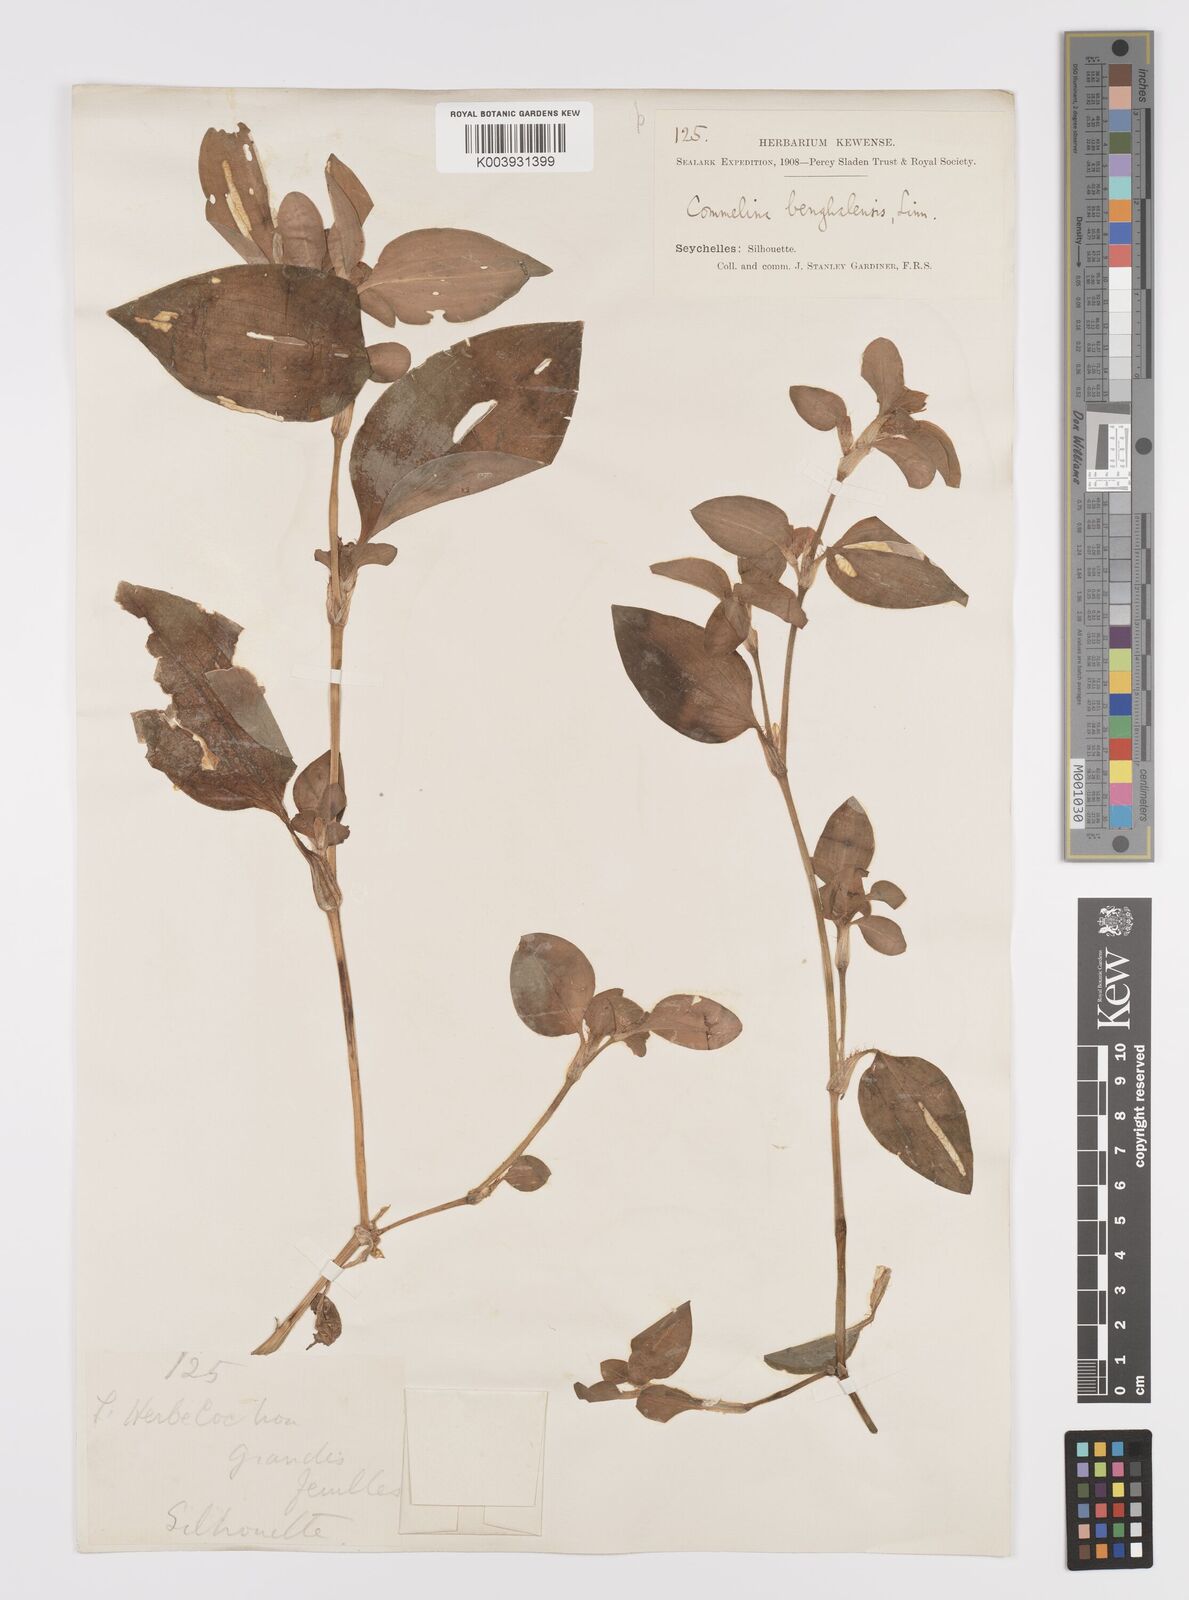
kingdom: Plantae
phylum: Tracheophyta
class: Liliopsida
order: Commelinales
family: Commelinaceae
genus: Commelina
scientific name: Commelina benghalensis
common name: Jio
